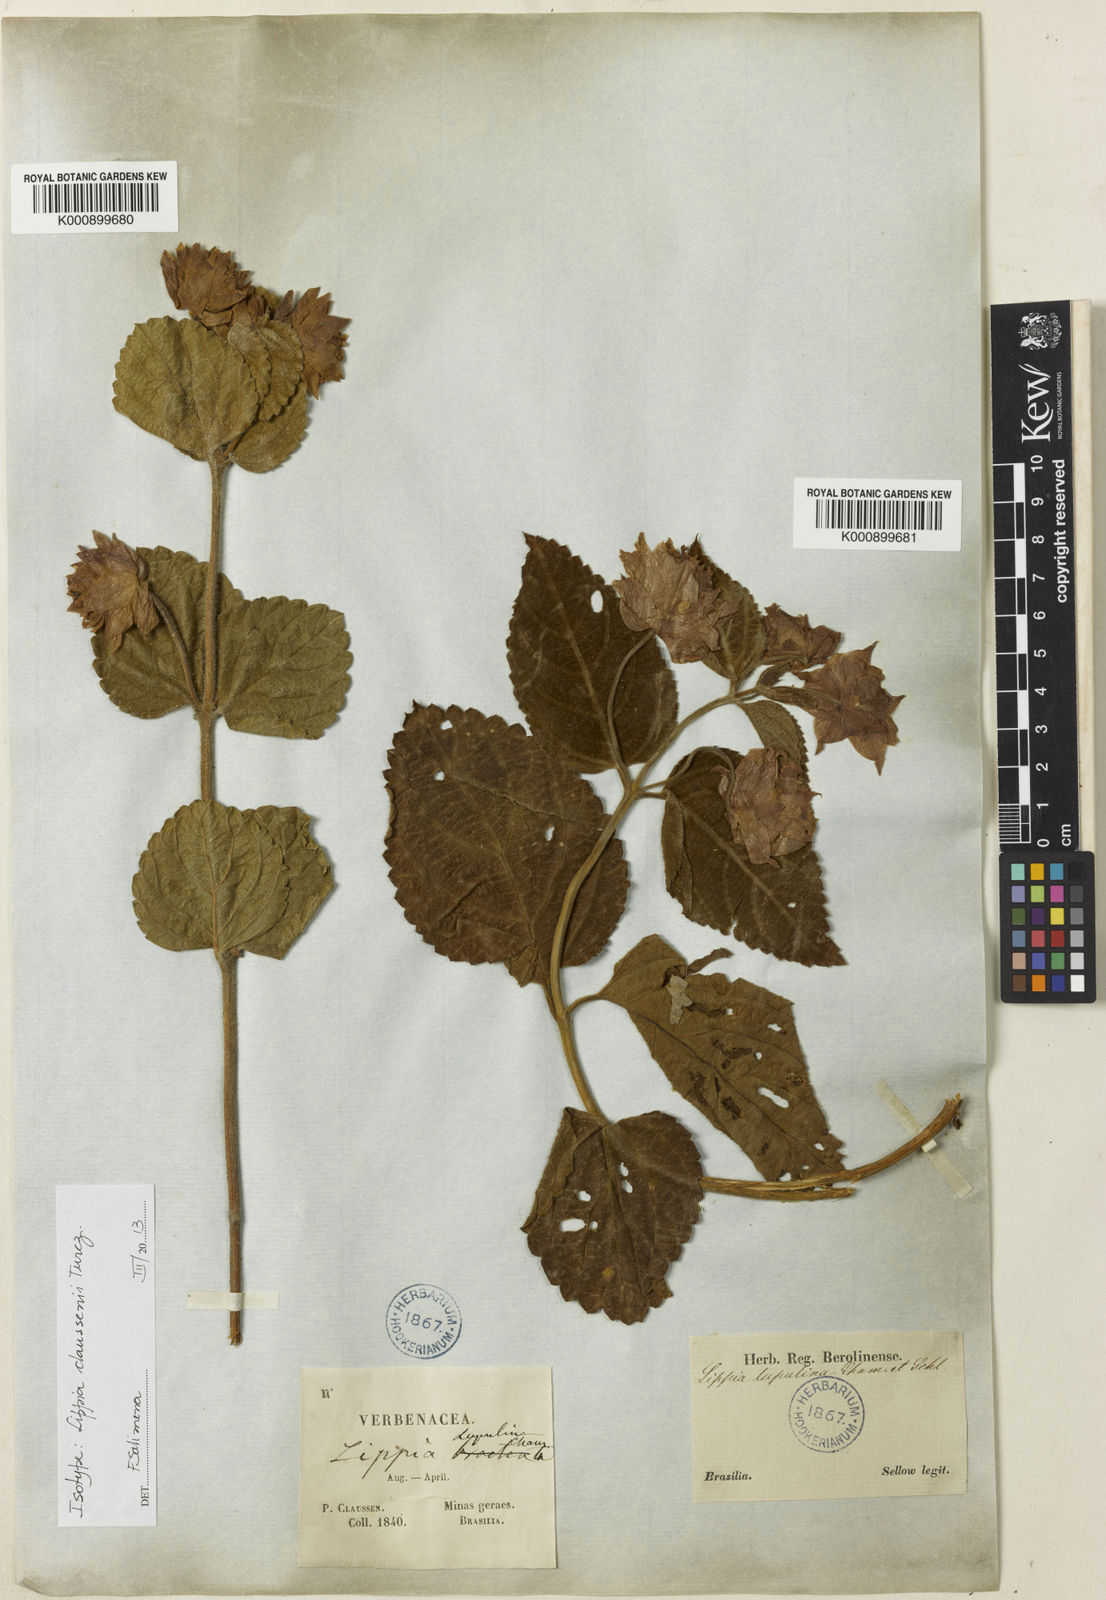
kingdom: Plantae
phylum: Tracheophyta
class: Magnoliopsida
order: Lamiales
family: Verbenaceae
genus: Lippia
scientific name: Lippia
